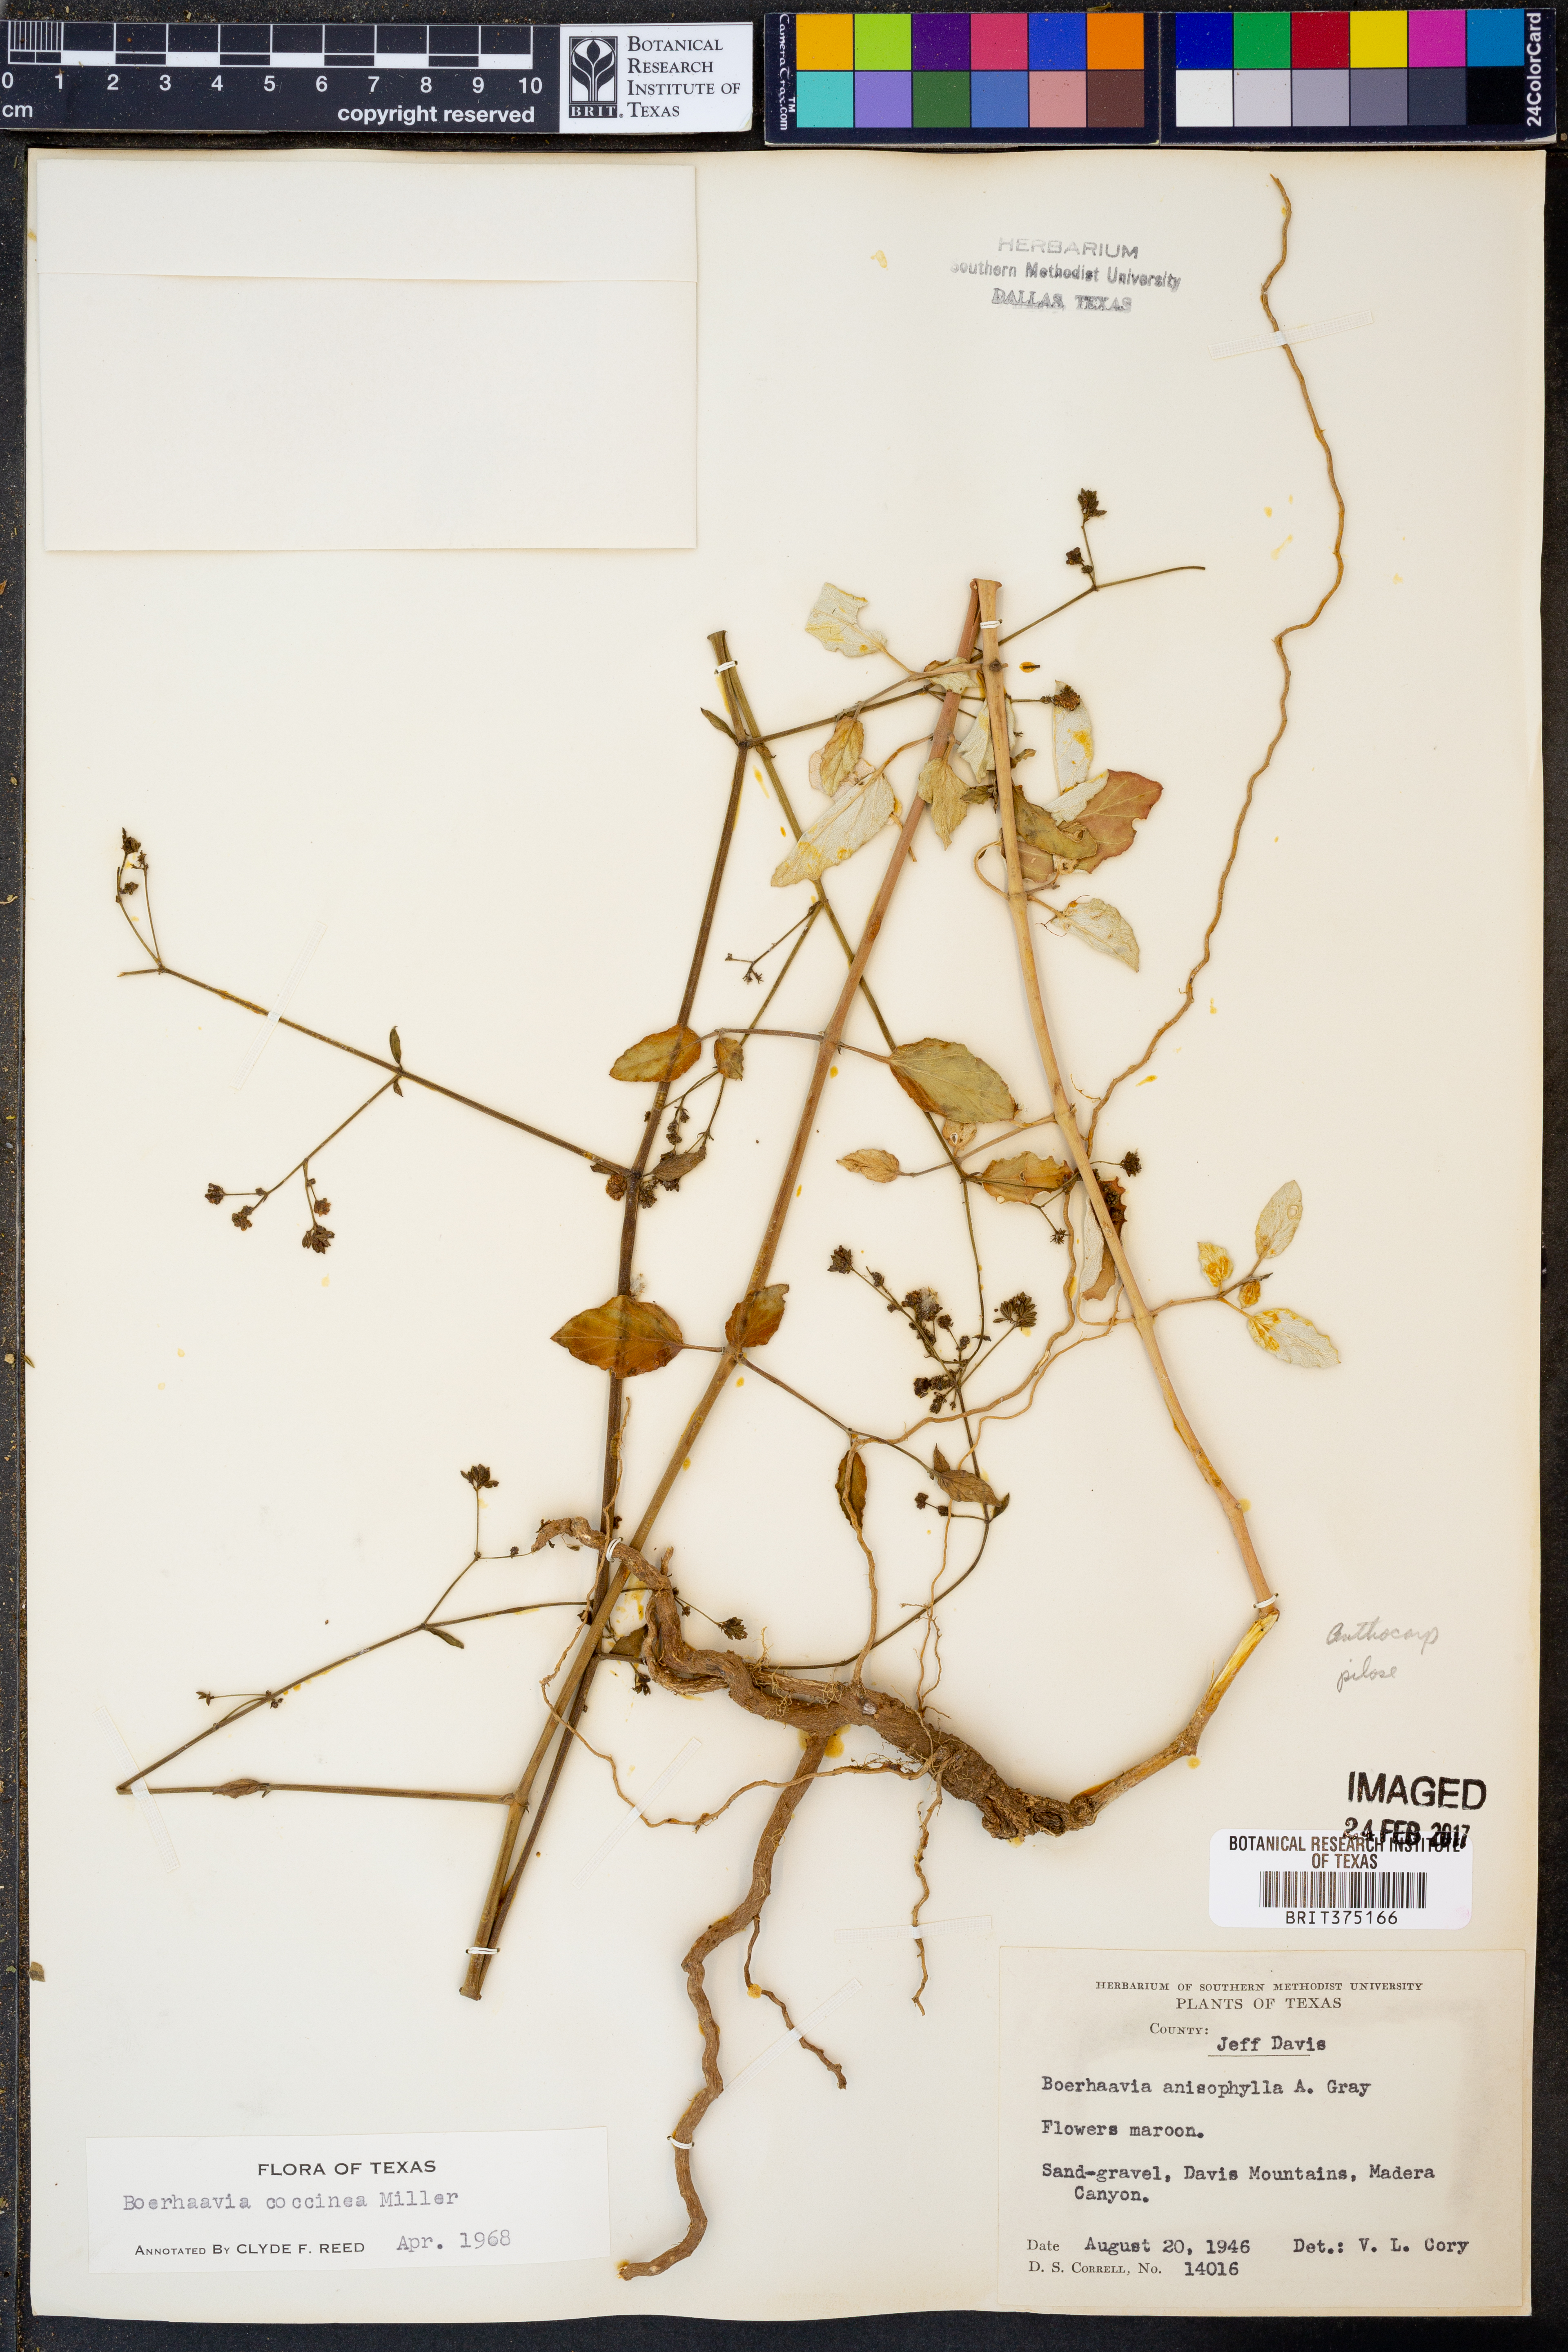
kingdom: Plantae
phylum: Tracheophyta
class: Magnoliopsida
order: Caryophyllales
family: Nyctaginaceae
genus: Boerhavia
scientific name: Boerhavia coccinea
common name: Scarlet spiderling
